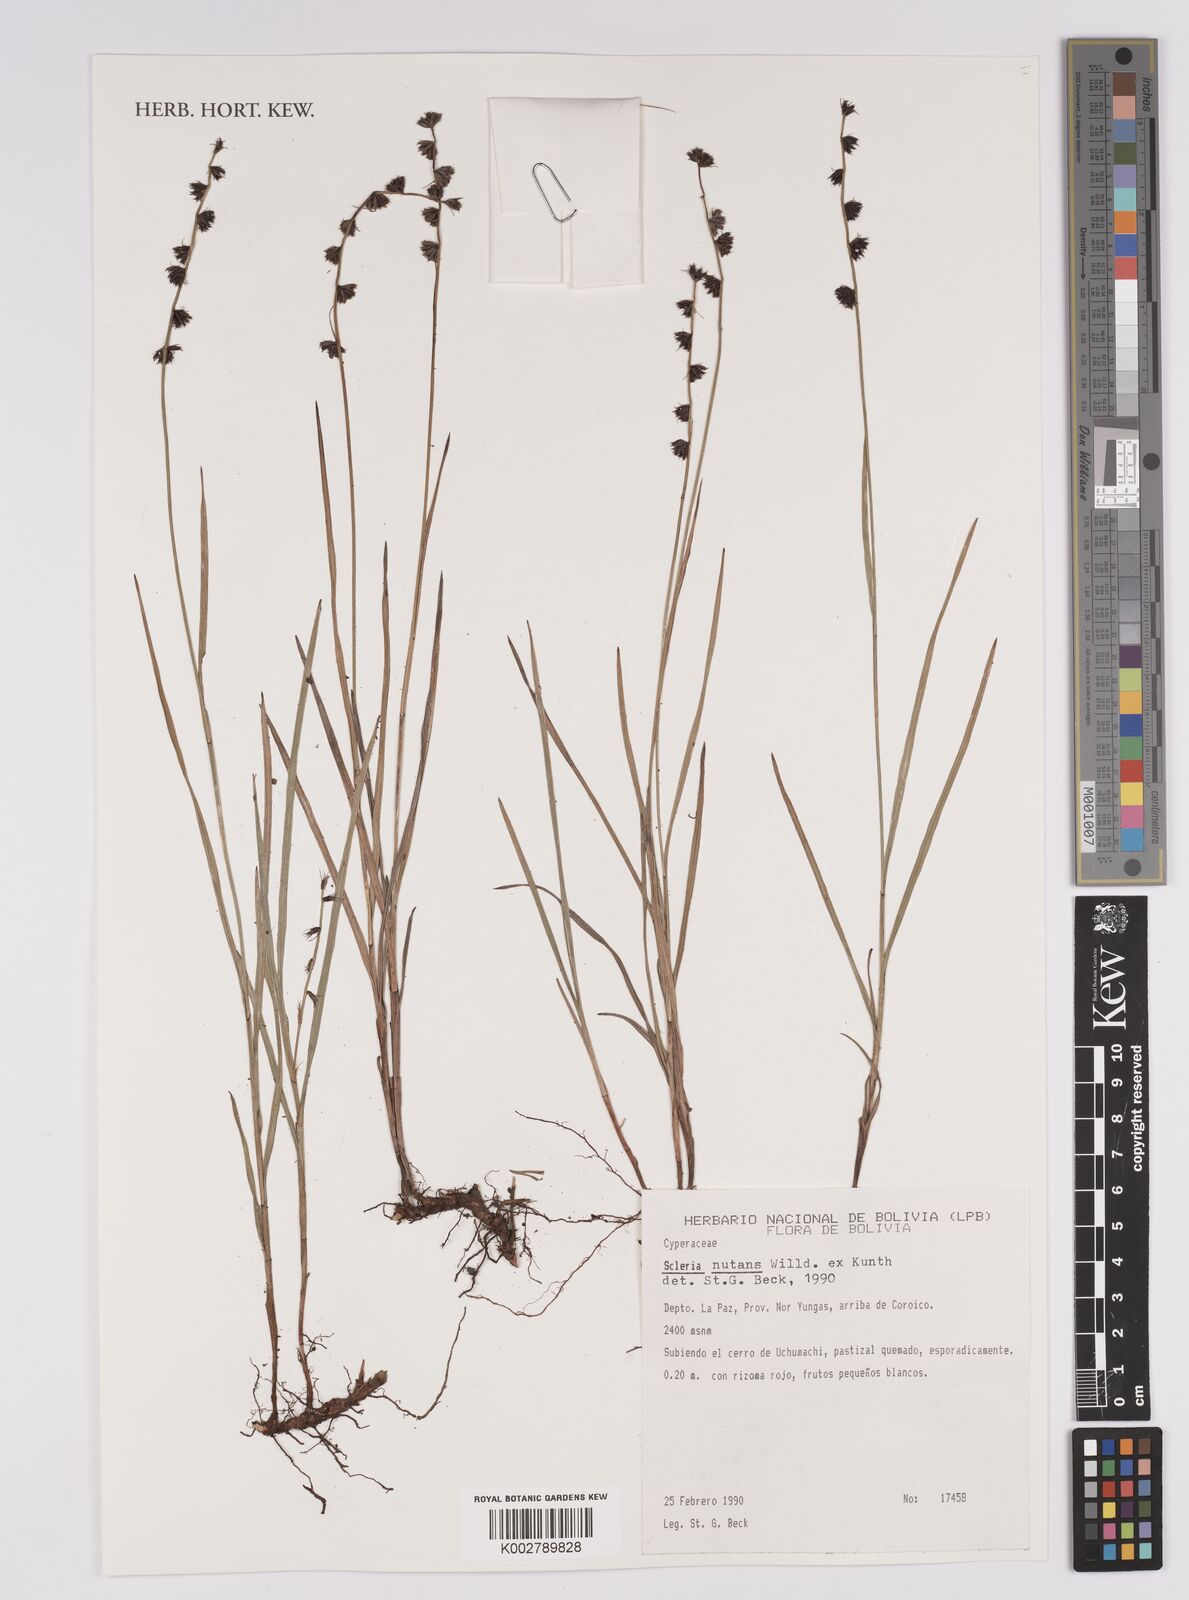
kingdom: Plantae
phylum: Tracheophyta
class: Liliopsida
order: Poales
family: Cyperaceae
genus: Scleria
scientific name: Scleria
